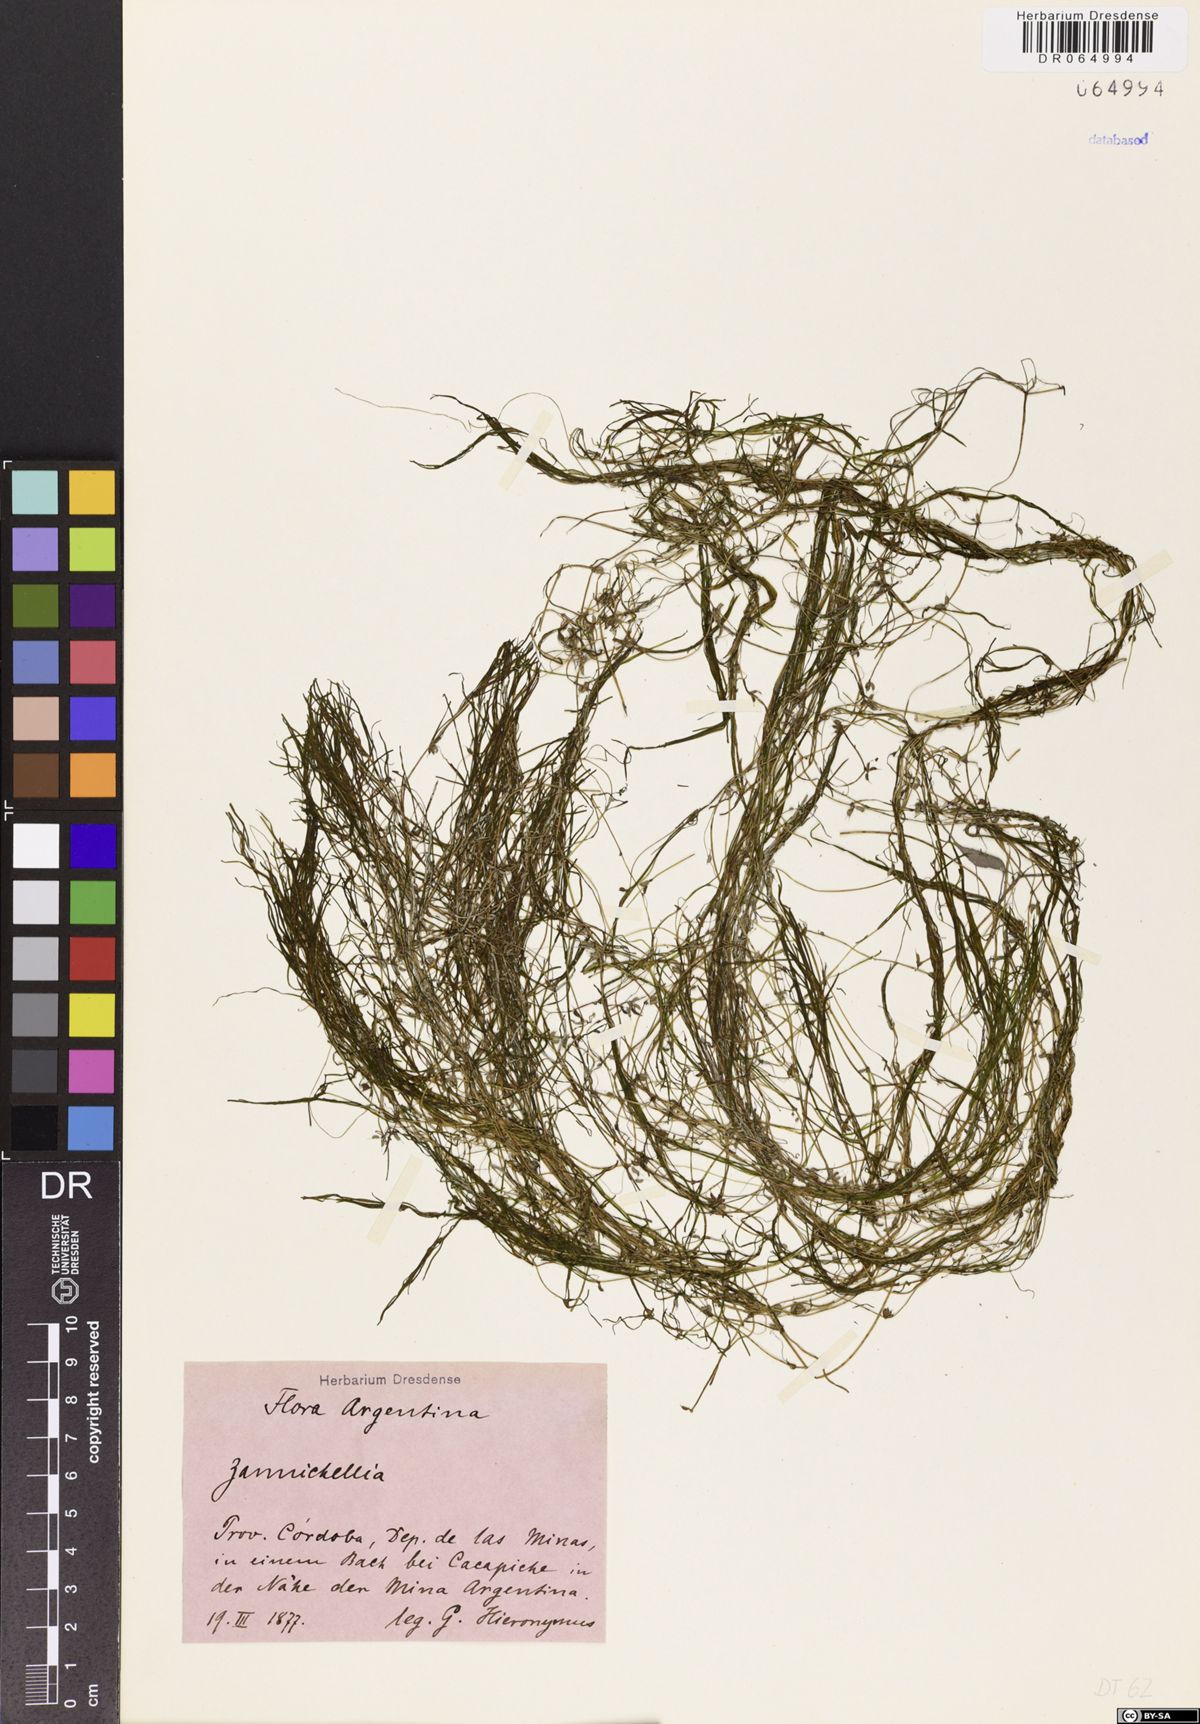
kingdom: Plantae
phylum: Tracheophyta
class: Liliopsida
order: Alismatales
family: Potamogetonaceae
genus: Zannichellia
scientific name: Zannichellia
